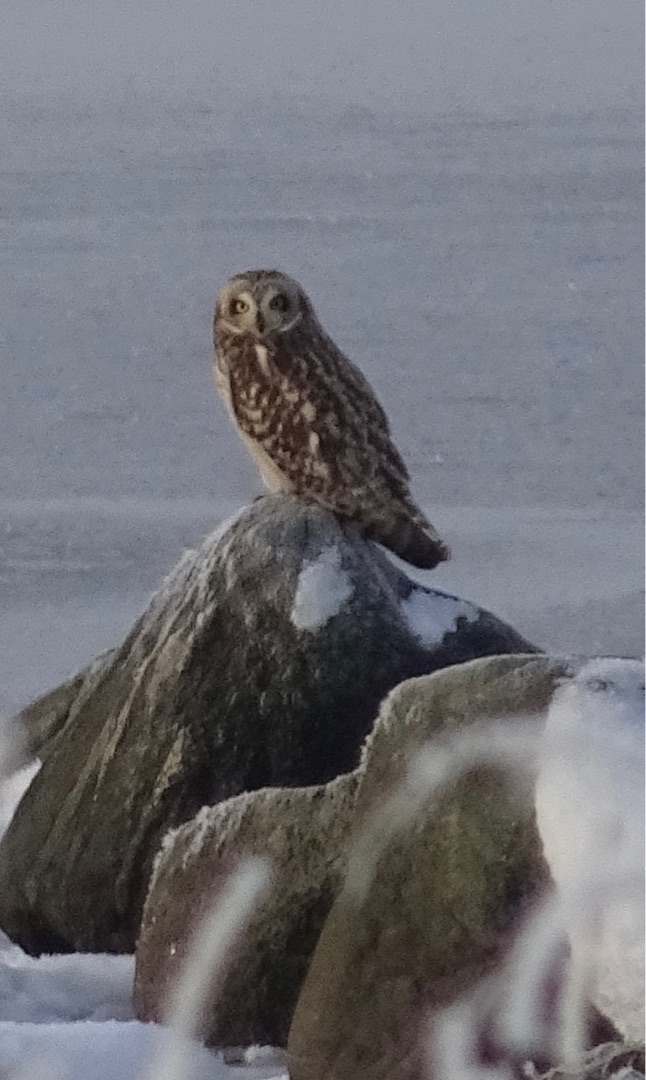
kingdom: Animalia
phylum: Chordata
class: Aves
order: Strigiformes
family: Strigidae
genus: Asio
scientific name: Asio flammeus
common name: Mosehornugle
